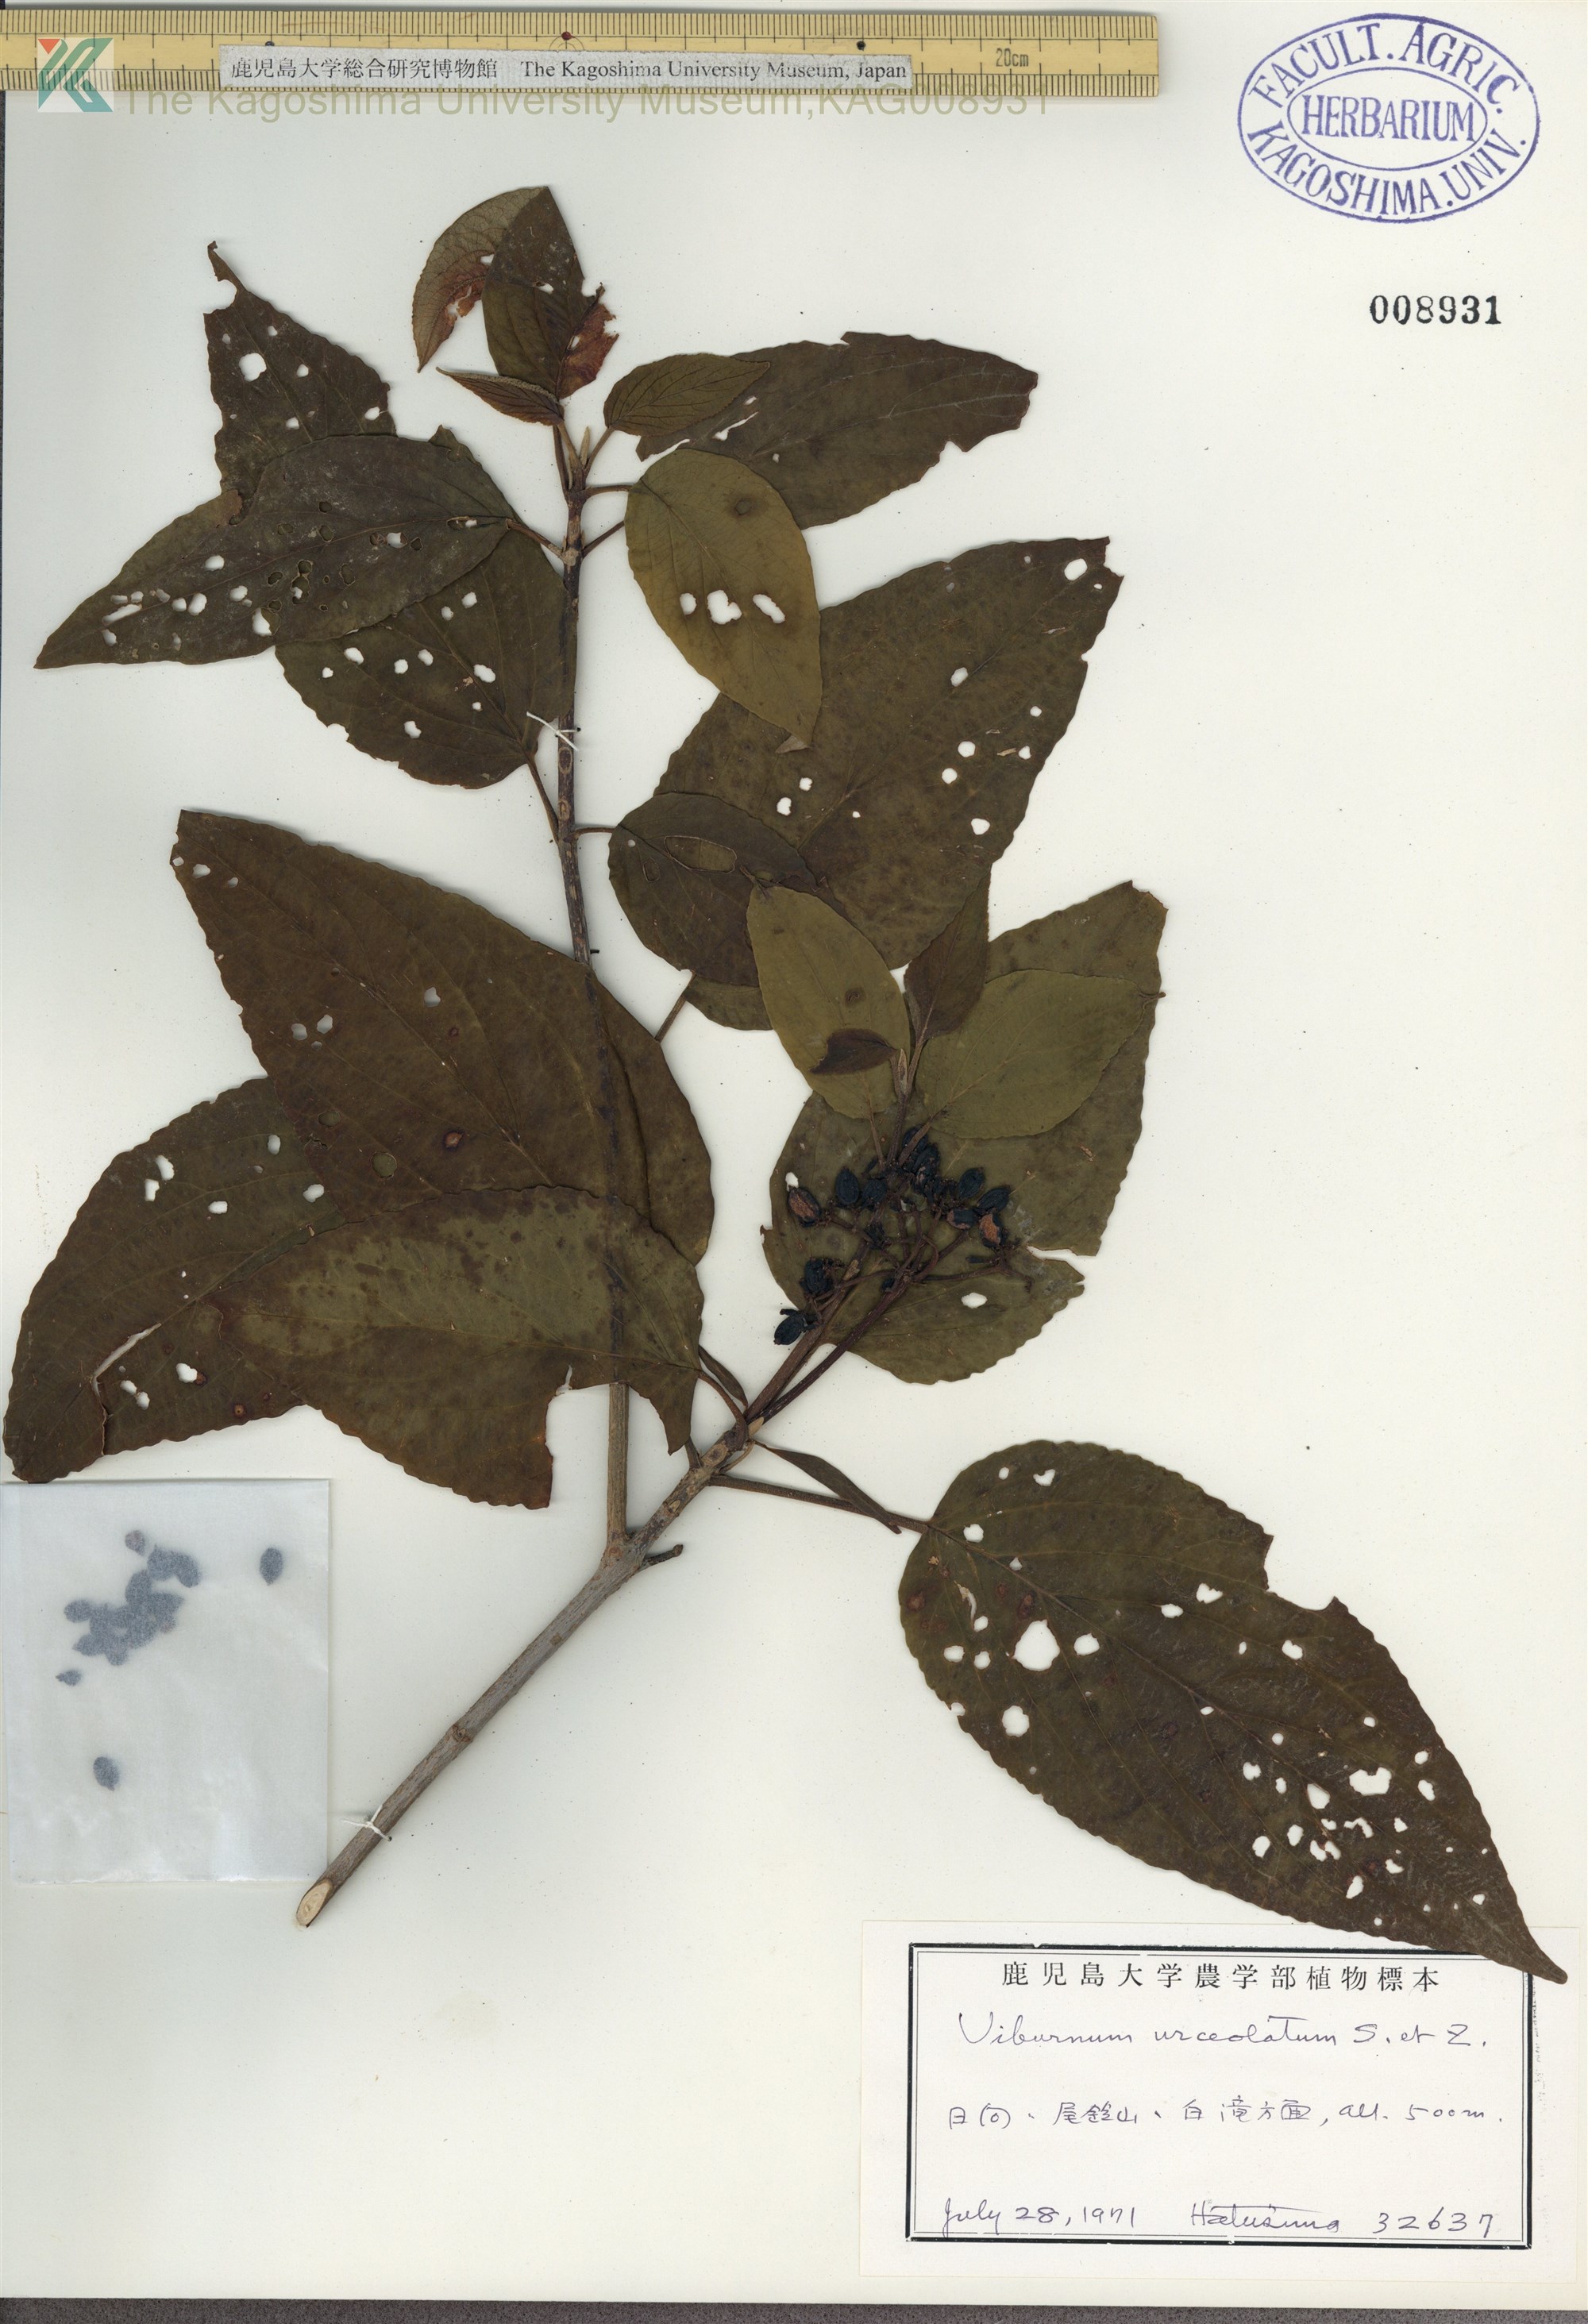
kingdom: Plantae
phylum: Tracheophyta
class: Magnoliopsida
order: Dipsacales
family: Viburnaceae
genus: Viburnum
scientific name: Viburnum urceolatum
